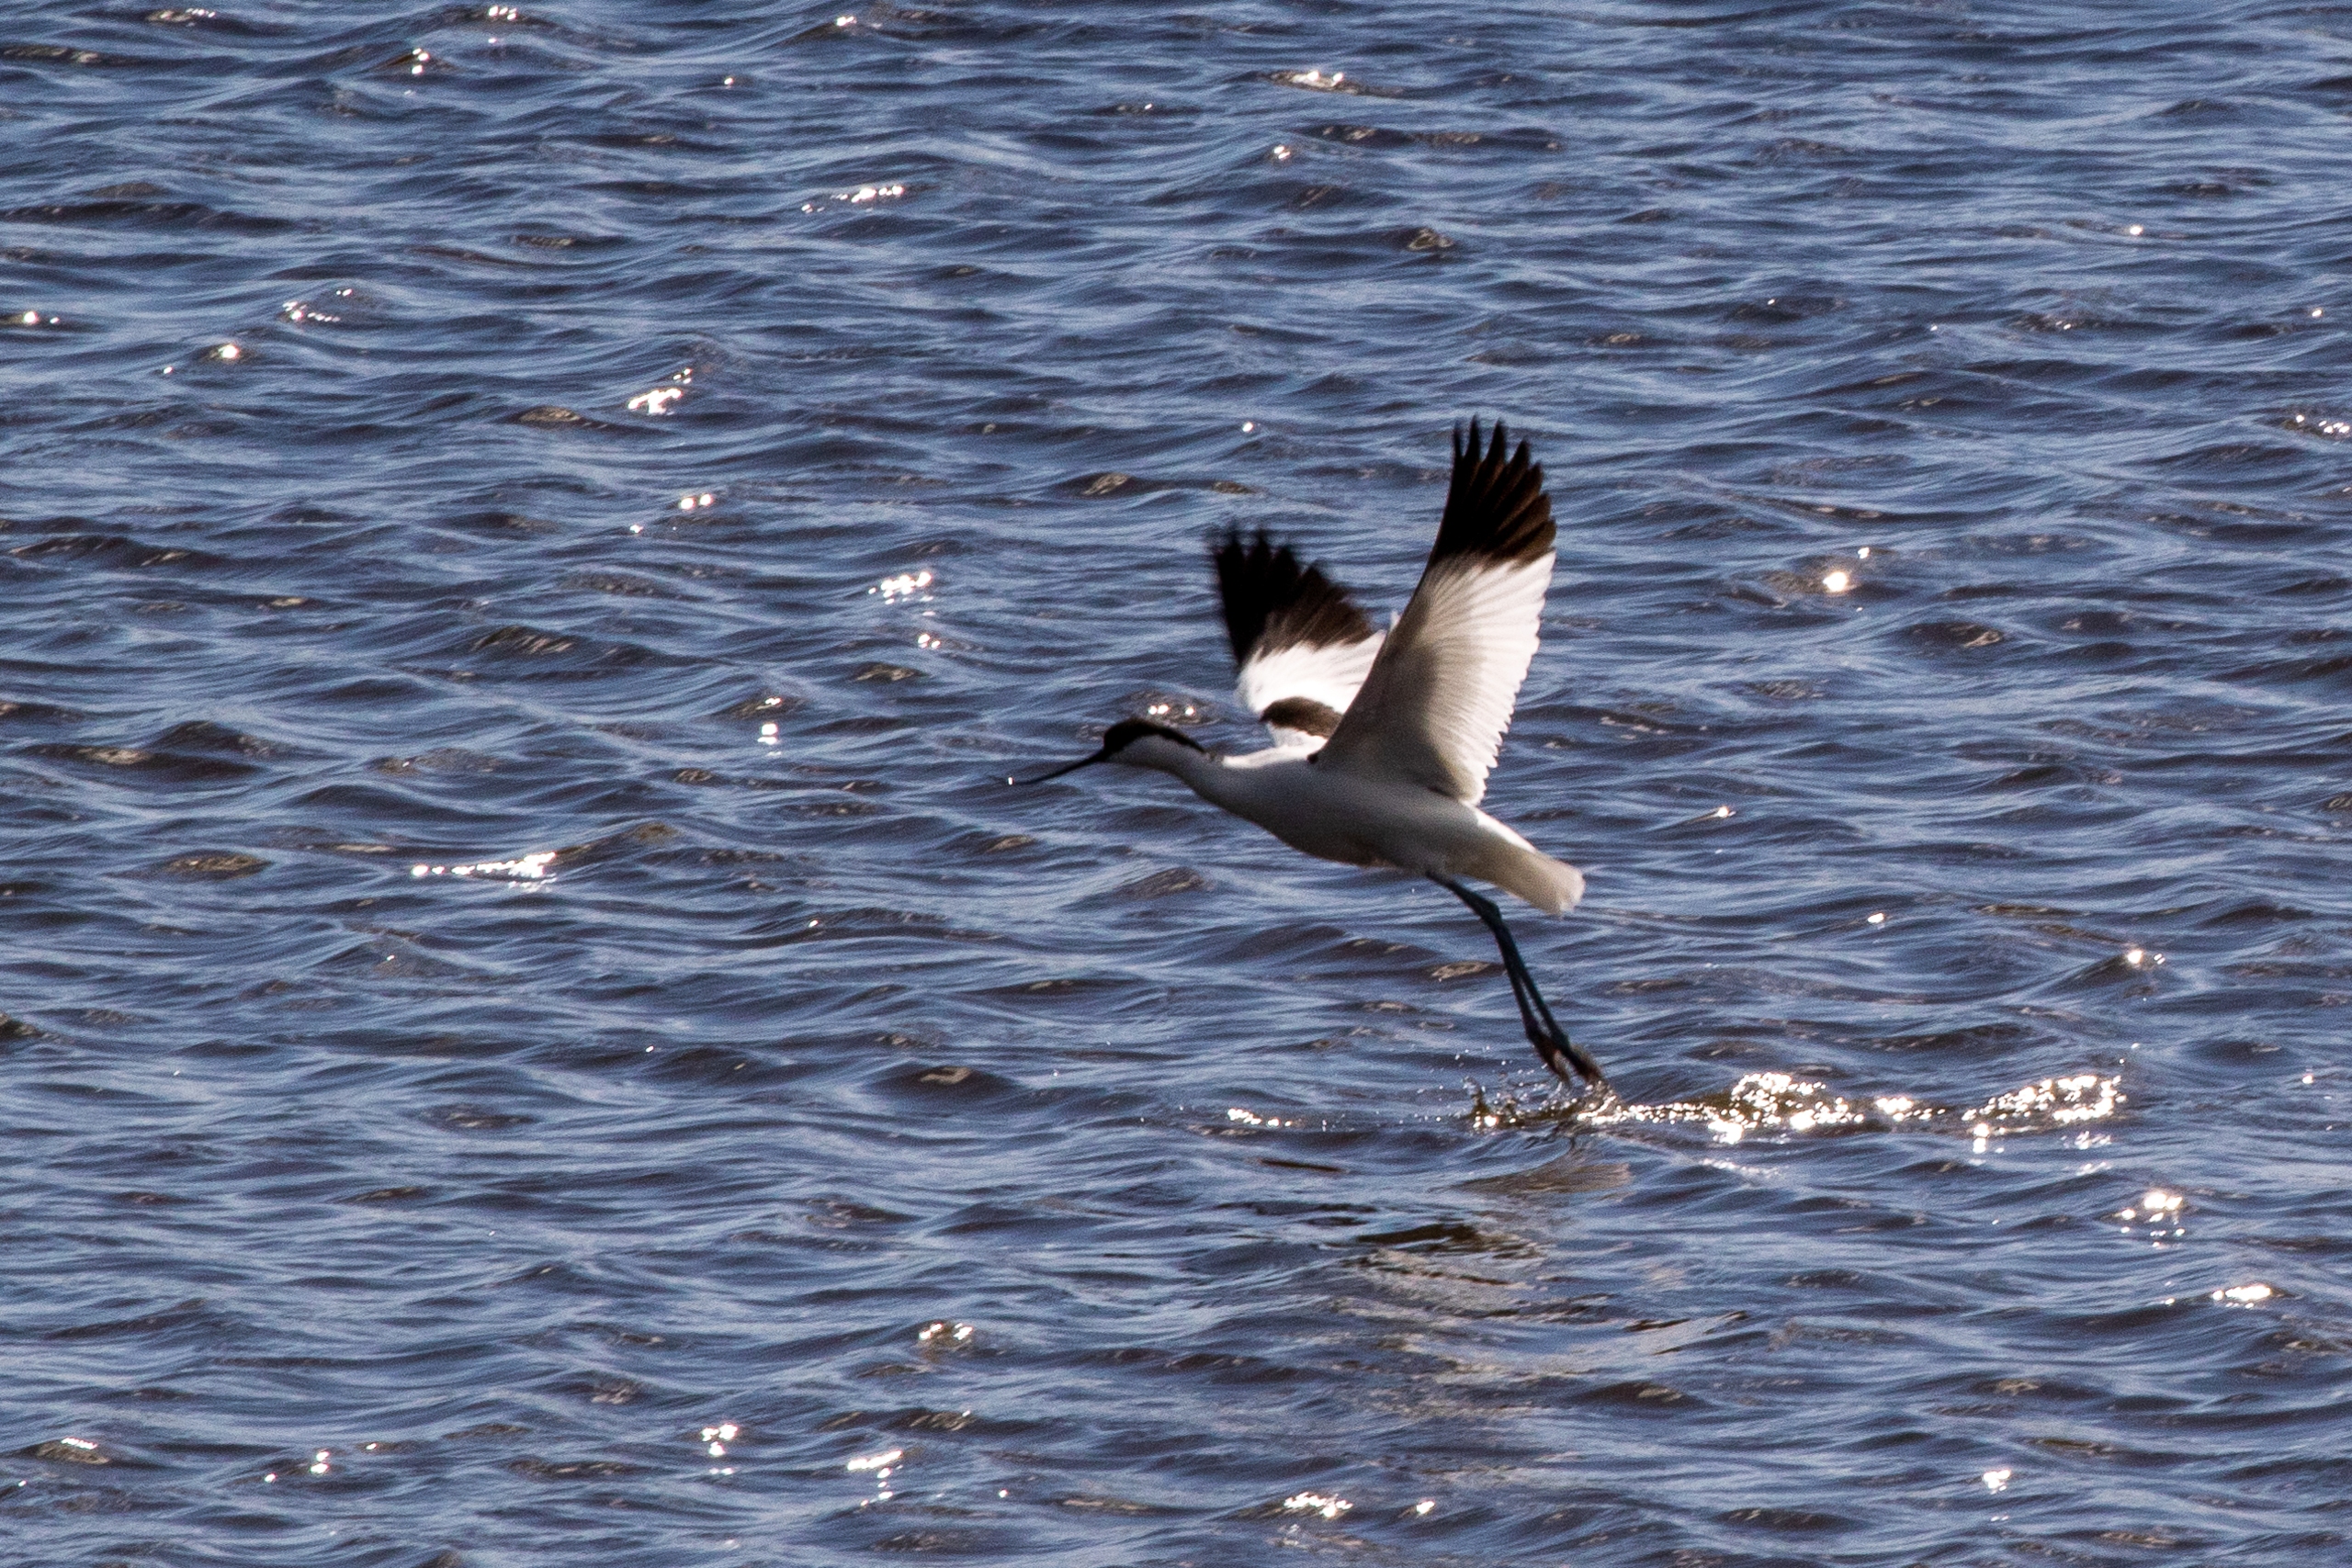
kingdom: Animalia
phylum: Chordata
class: Aves
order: Charadriiformes
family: Recurvirostridae
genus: Recurvirostra
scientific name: Recurvirostra avosetta
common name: Klyde
